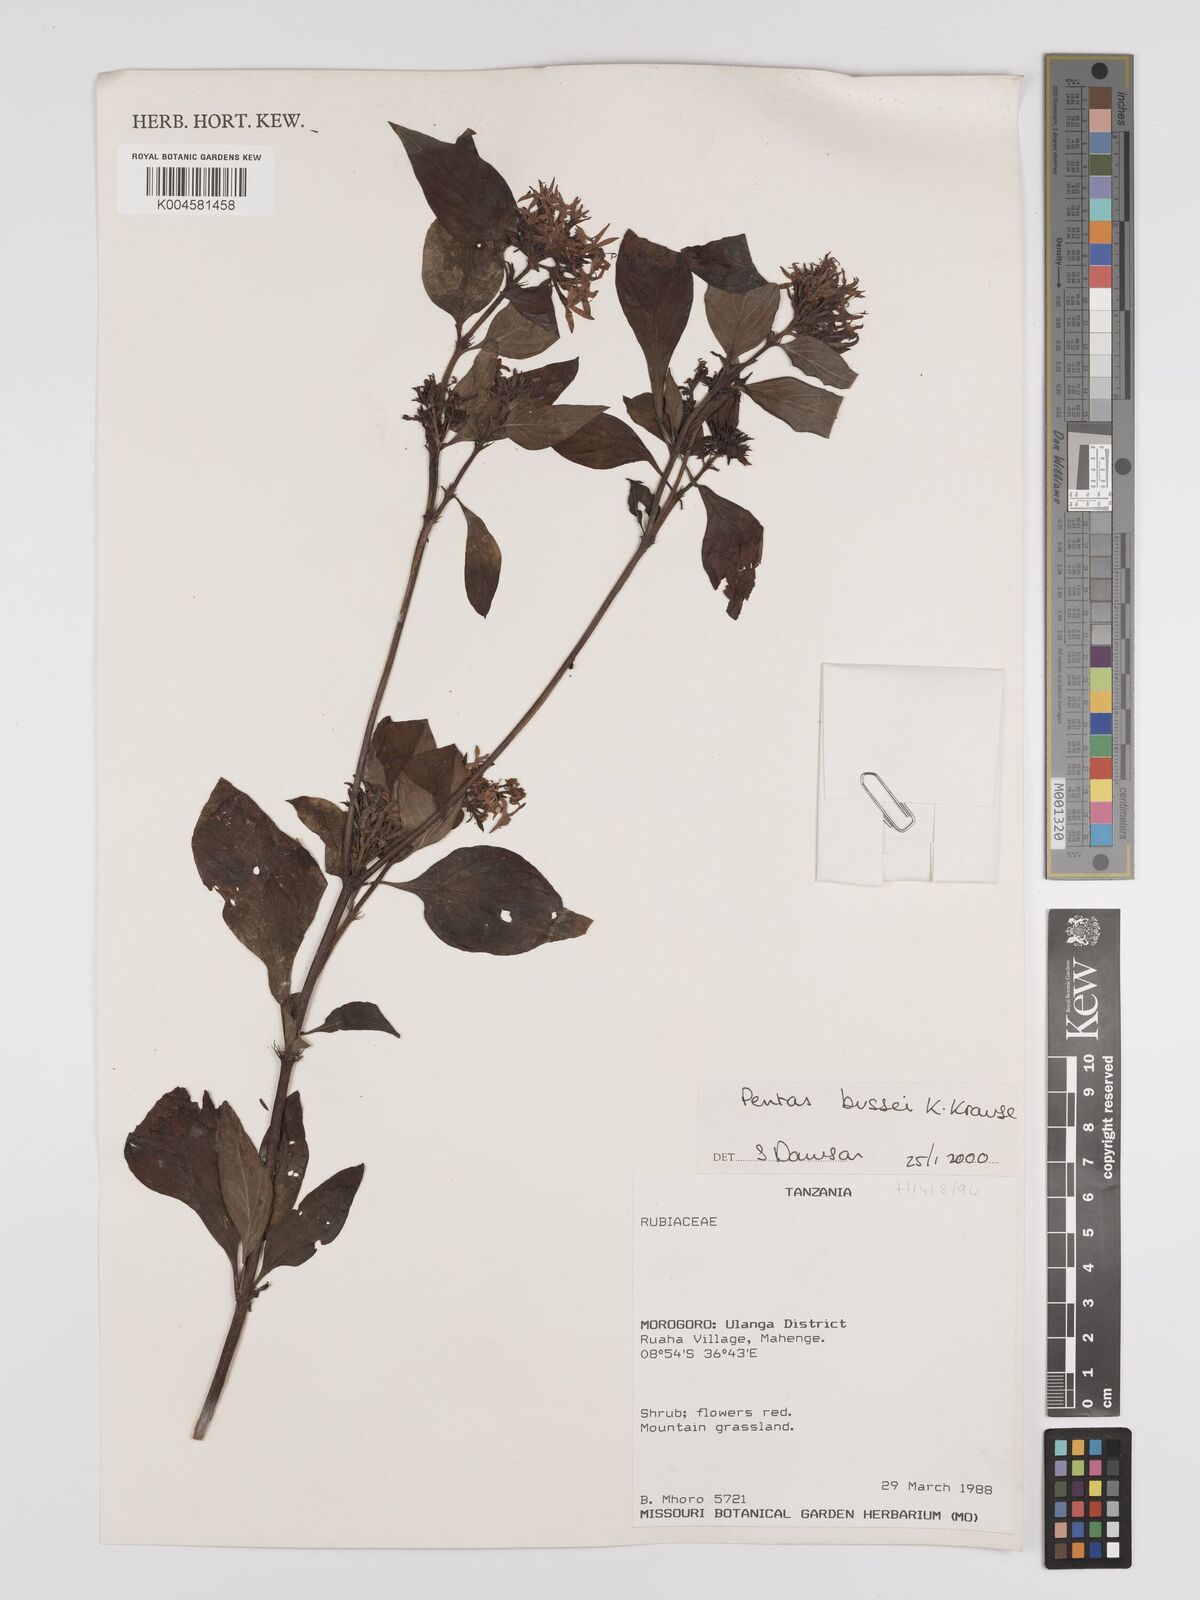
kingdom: Plantae
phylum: Tracheophyta
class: Magnoliopsida
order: Gentianales
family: Rubiaceae
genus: Rhodopentas
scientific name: Rhodopentas bussei
